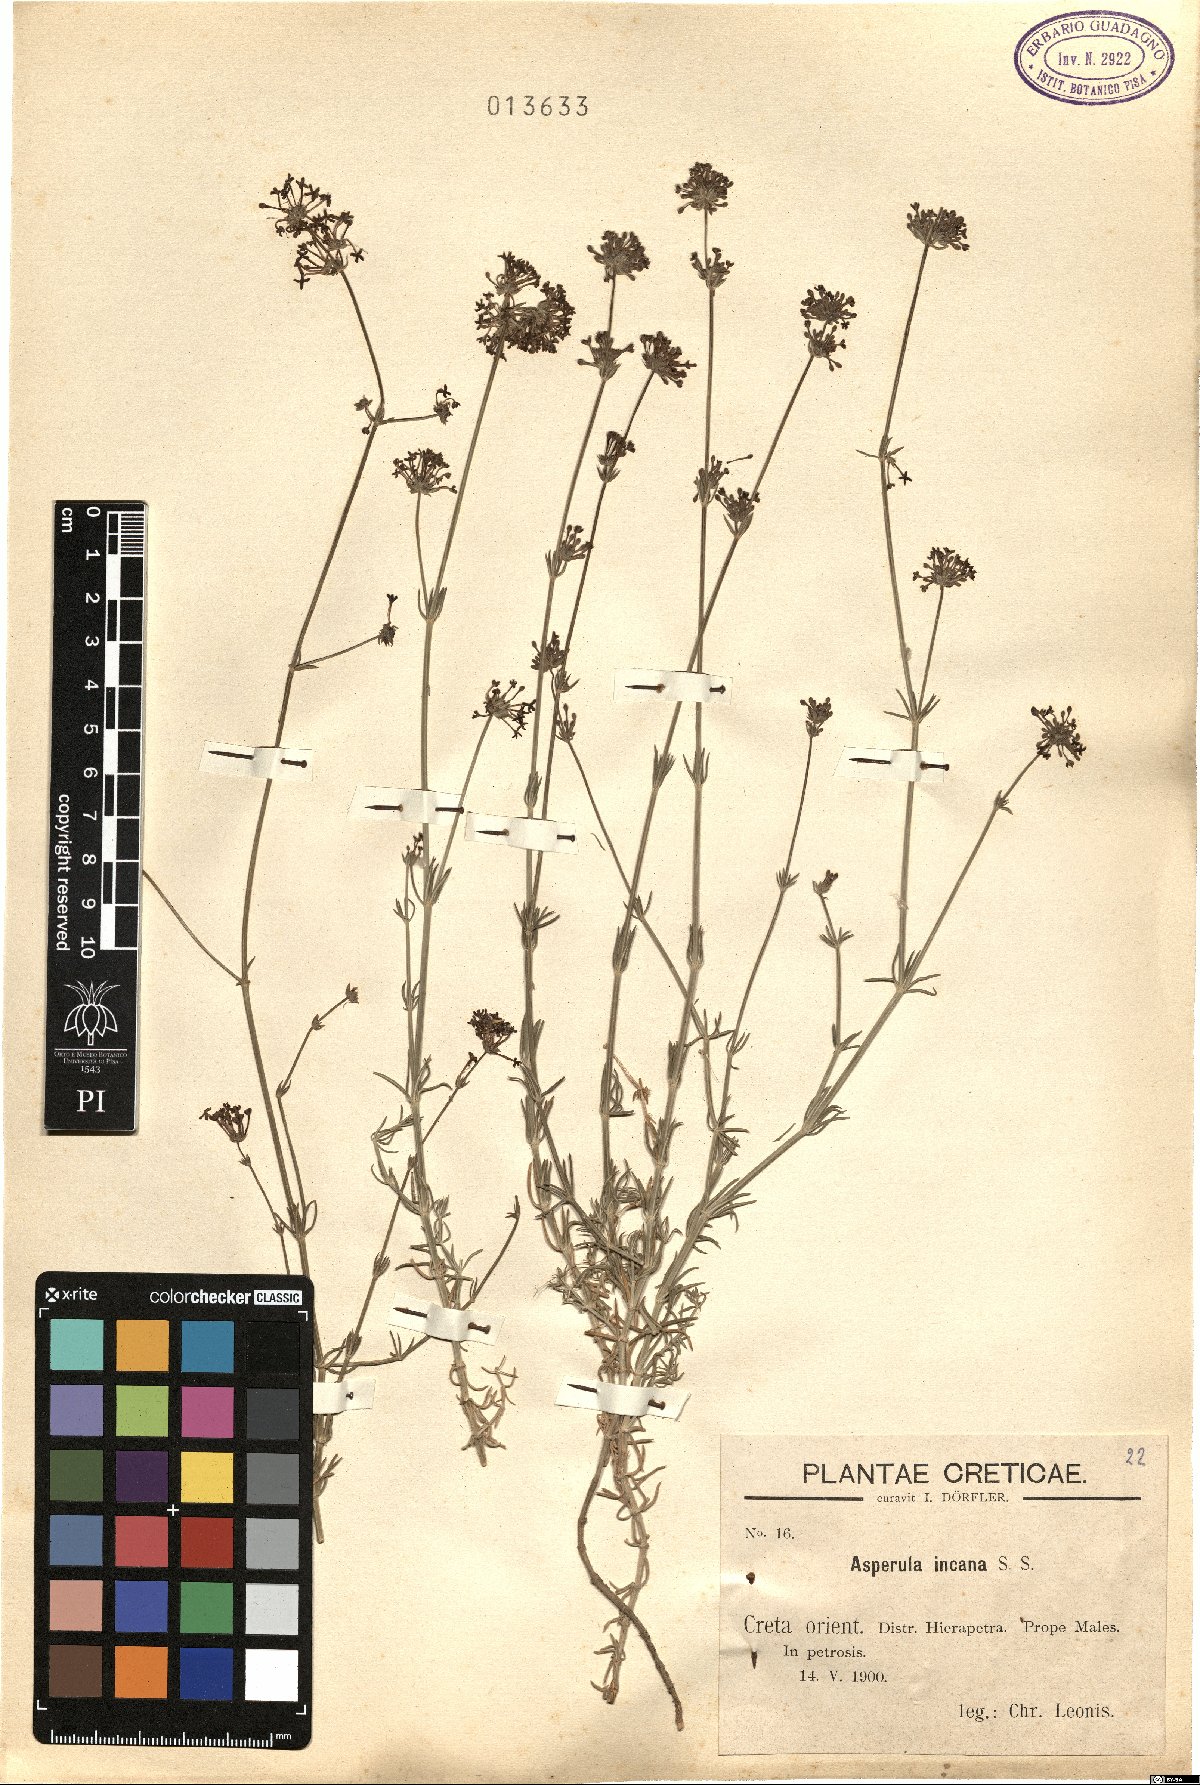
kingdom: Plantae
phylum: Tracheophyta
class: Magnoliopsida
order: Gentianales
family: Rubiaceae
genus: Hexaphylla
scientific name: Hexaphylla pubescens
